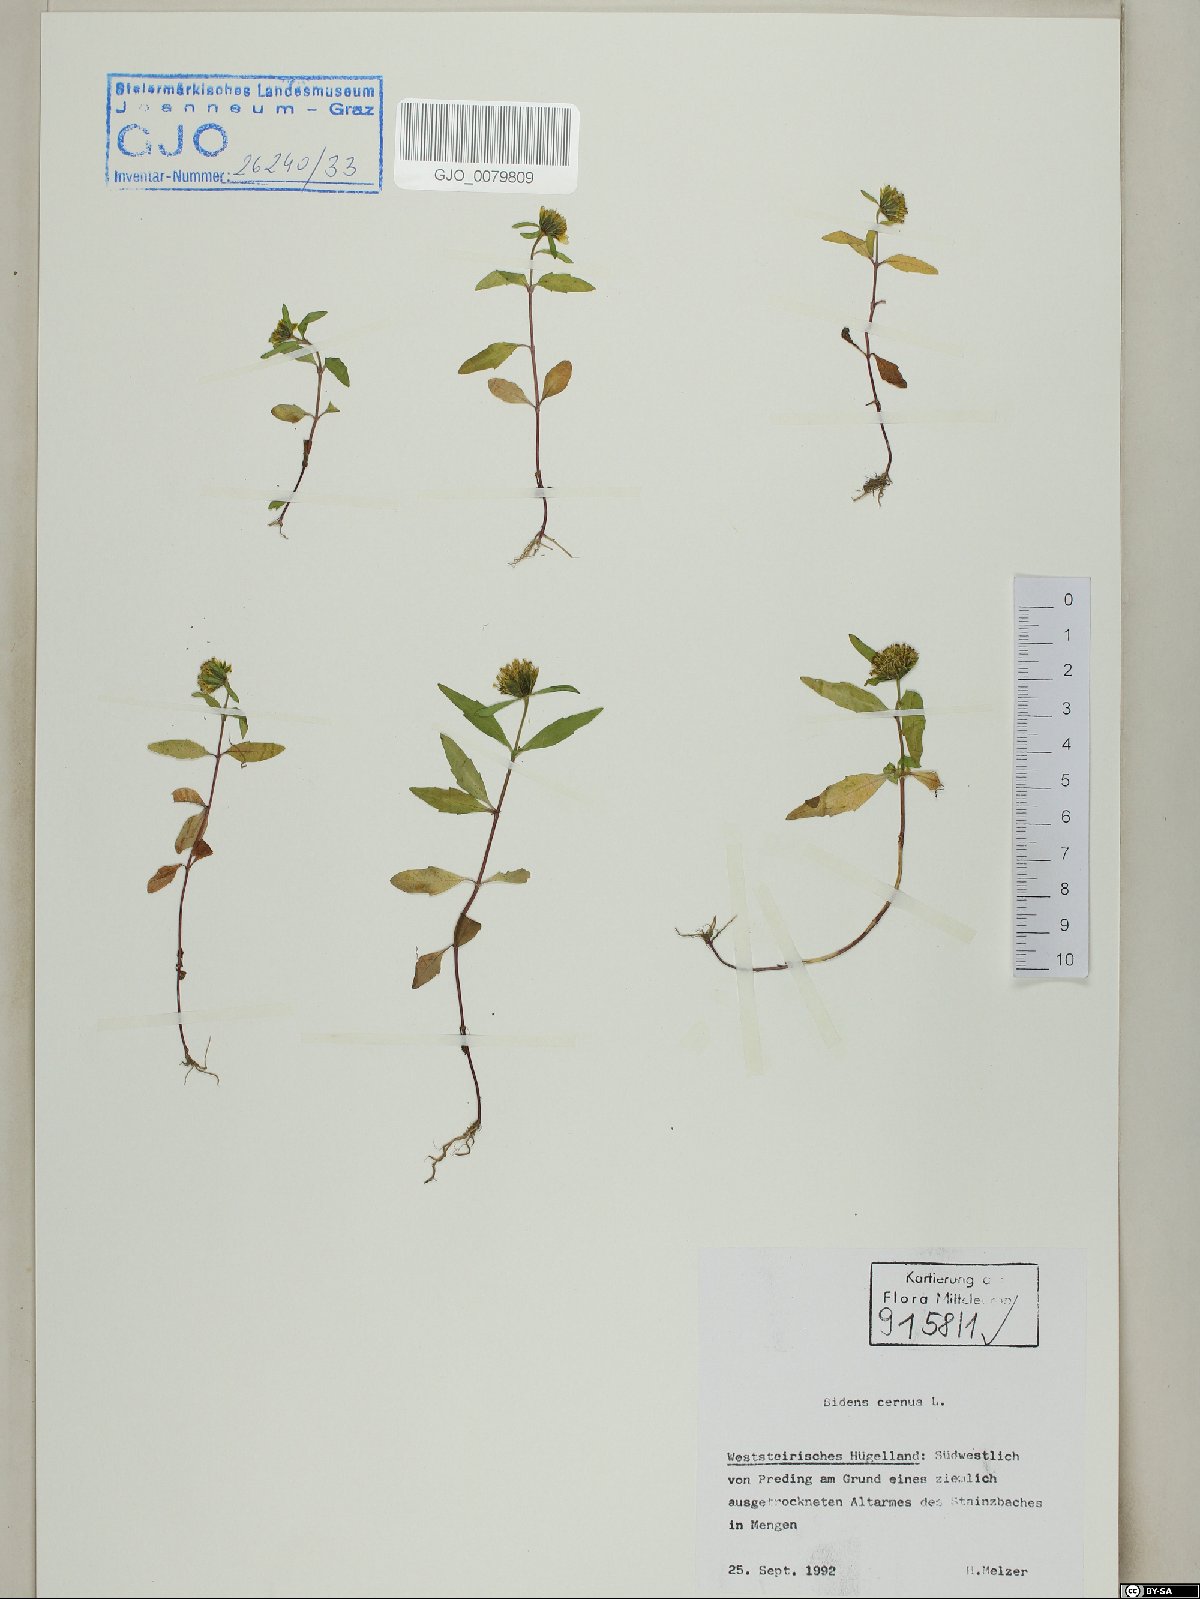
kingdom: Plantae
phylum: Tracheophyta
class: Magnoliopsida
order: Asterales
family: Asteraceae
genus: Bidens
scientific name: Bidens cernua
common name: Nodding bur-marigold
